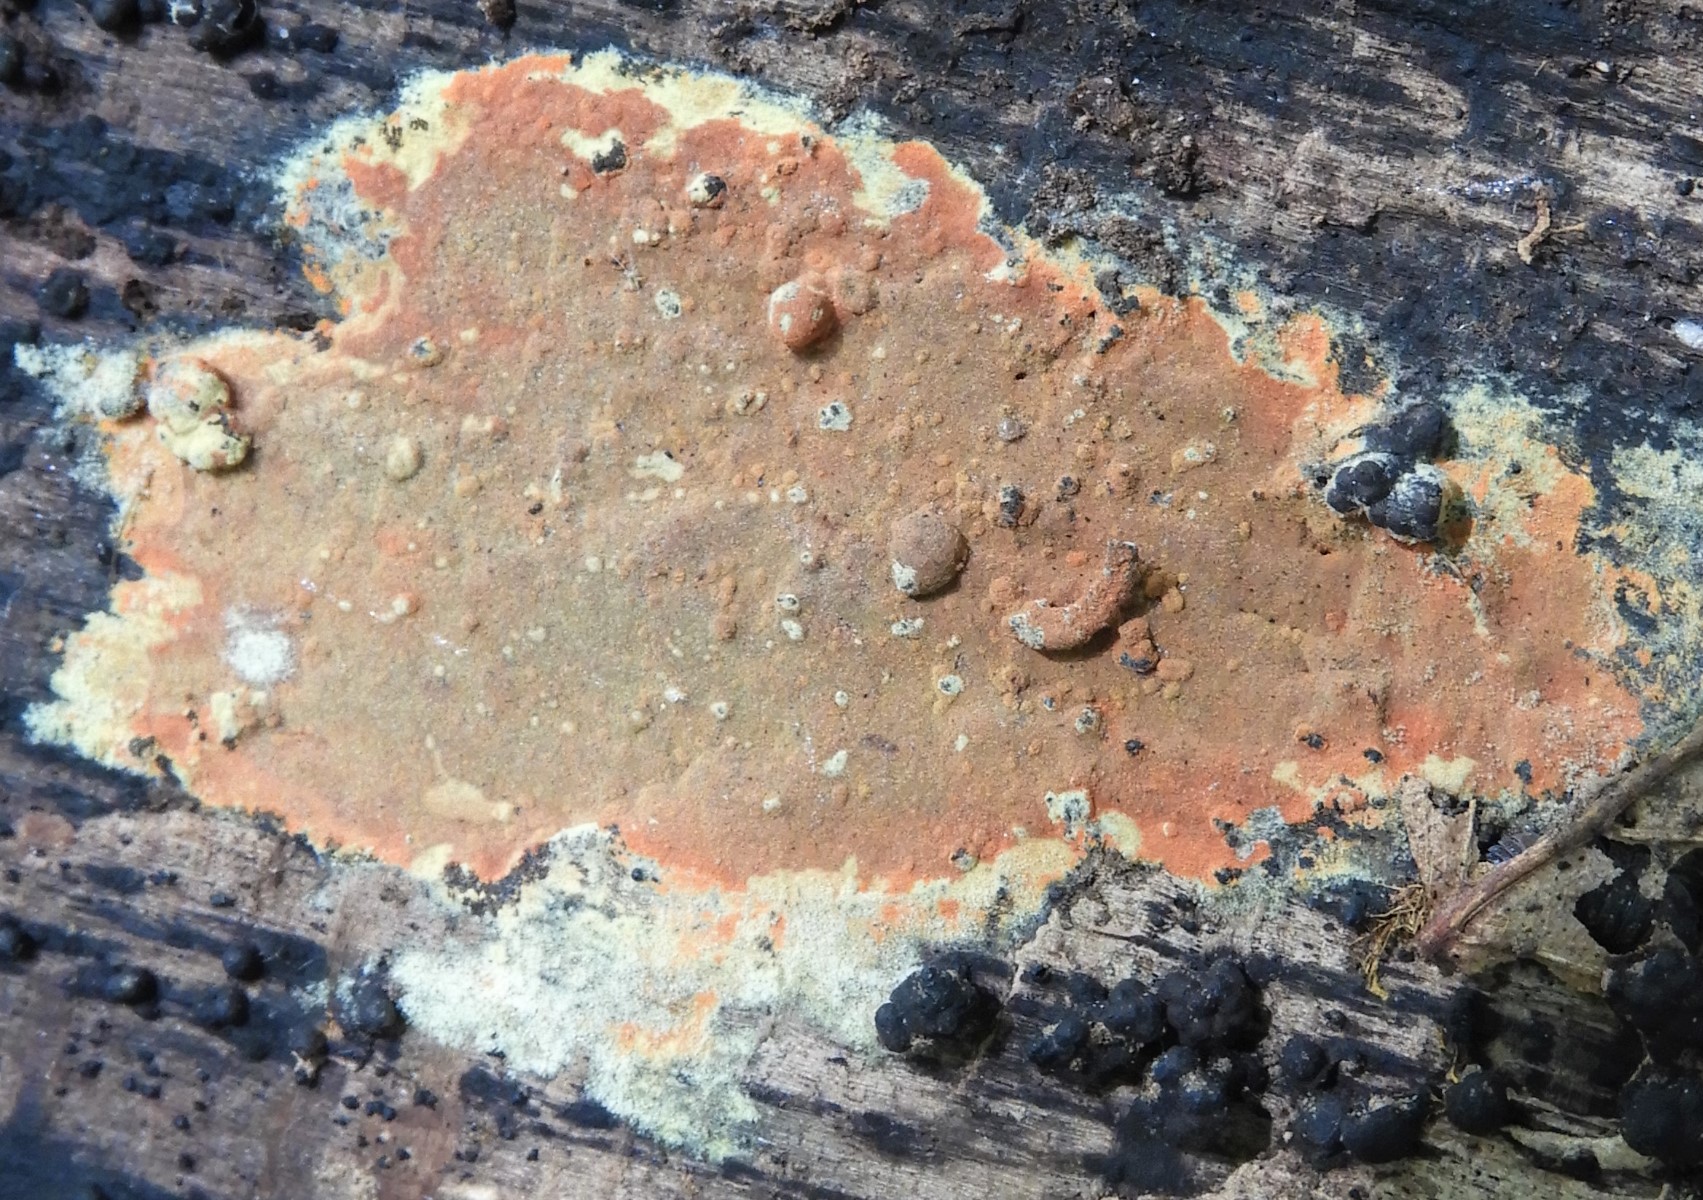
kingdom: Fungi
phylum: Ascomycota
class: Sordariomycetes
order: Xylariales
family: Hypoxylaceae
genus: Hypoxylon
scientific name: Hypoxylon
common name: kulbær
